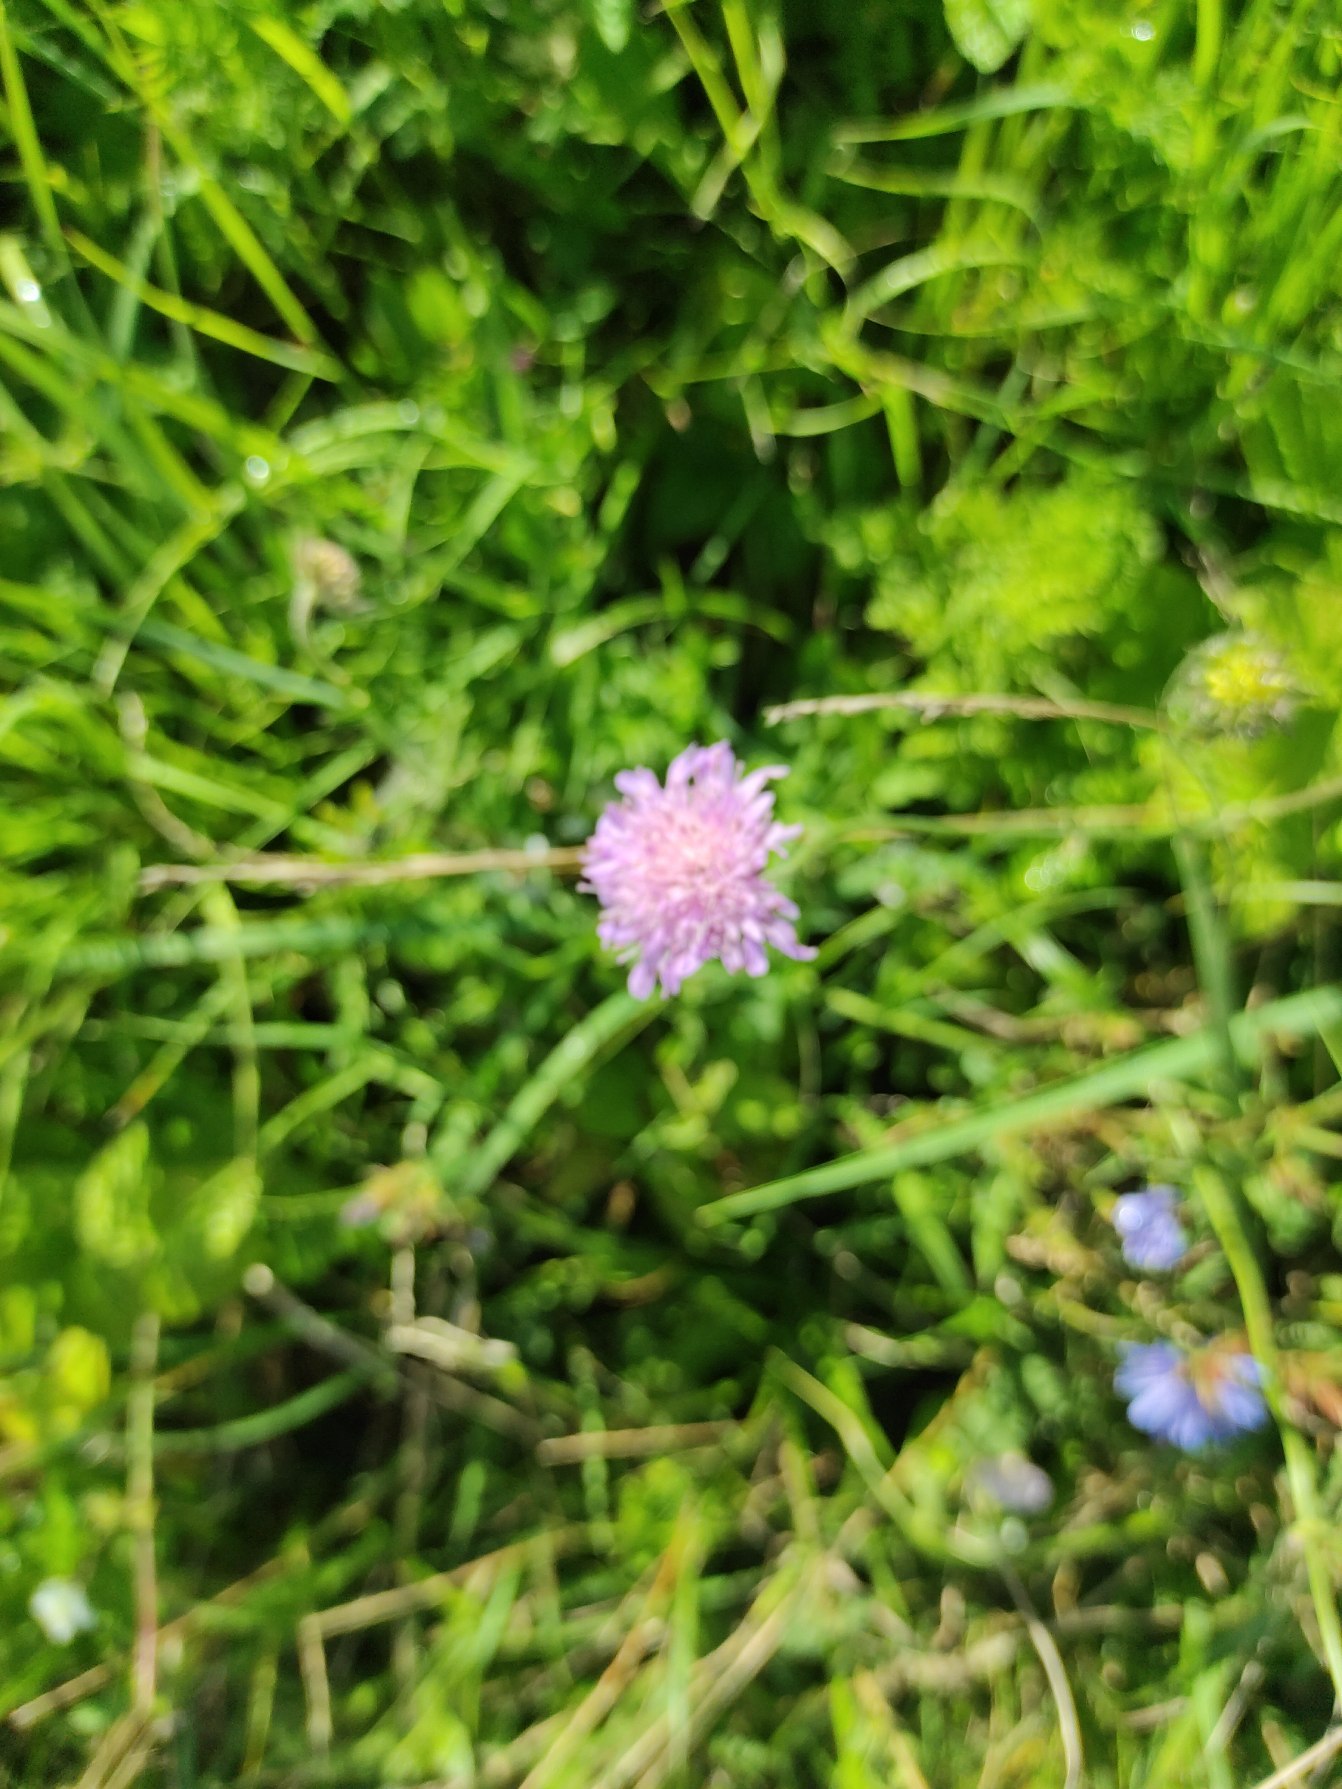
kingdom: Plantae
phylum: Tracheophyta
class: Magnoliopsida
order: Dipsacales
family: Caprifoliaceae
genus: Knautia
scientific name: Knautia arvensis
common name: Blåhat
